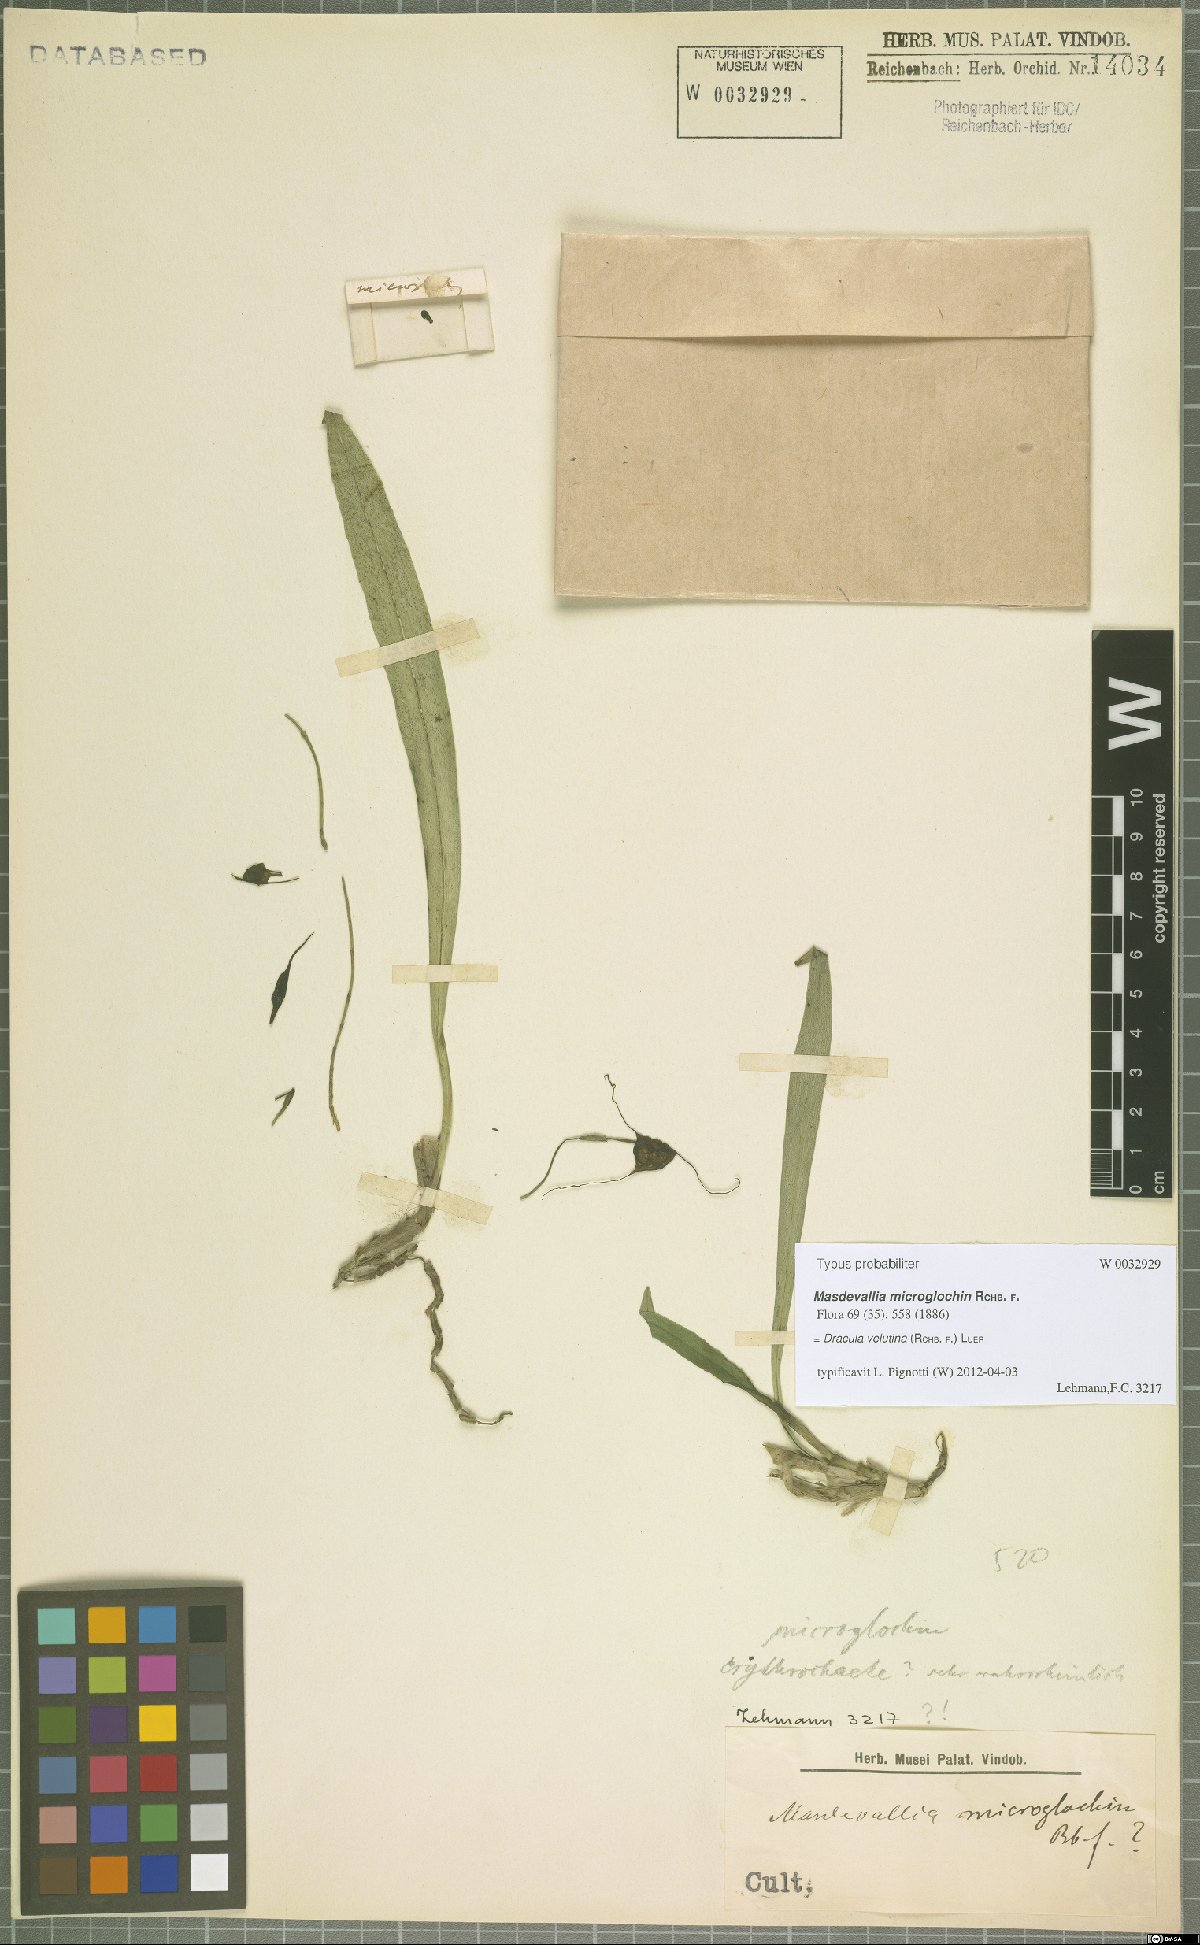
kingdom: Plantae
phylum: Tracheophyta
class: Liliopsida
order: Asparagales
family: Orchidaceae
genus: Dracula
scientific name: Dracula velutina
